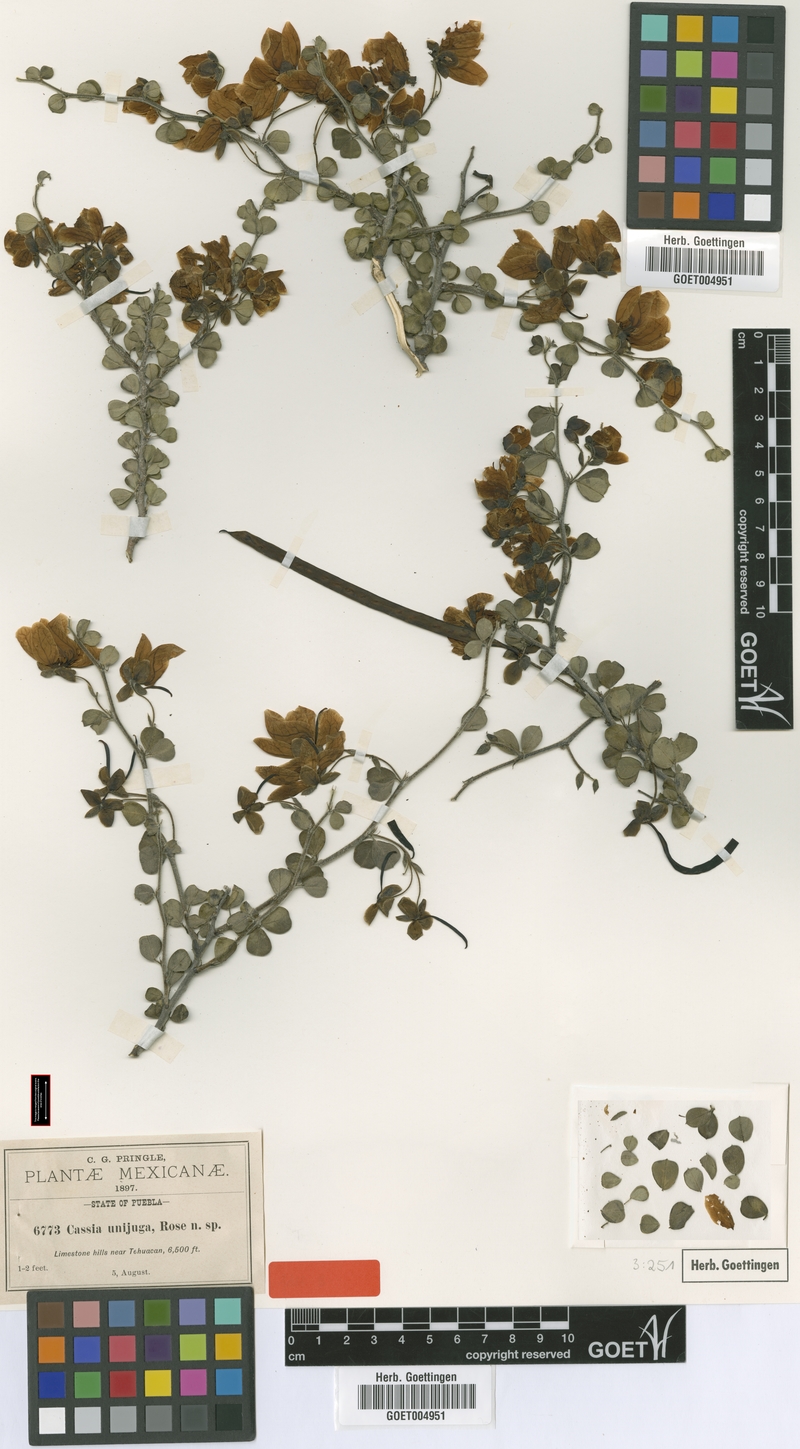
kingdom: Plantae
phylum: Tracheophyta
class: Magnoliopsida
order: Fabales
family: Fabaceae
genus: Senna
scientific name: Senna unijuga
